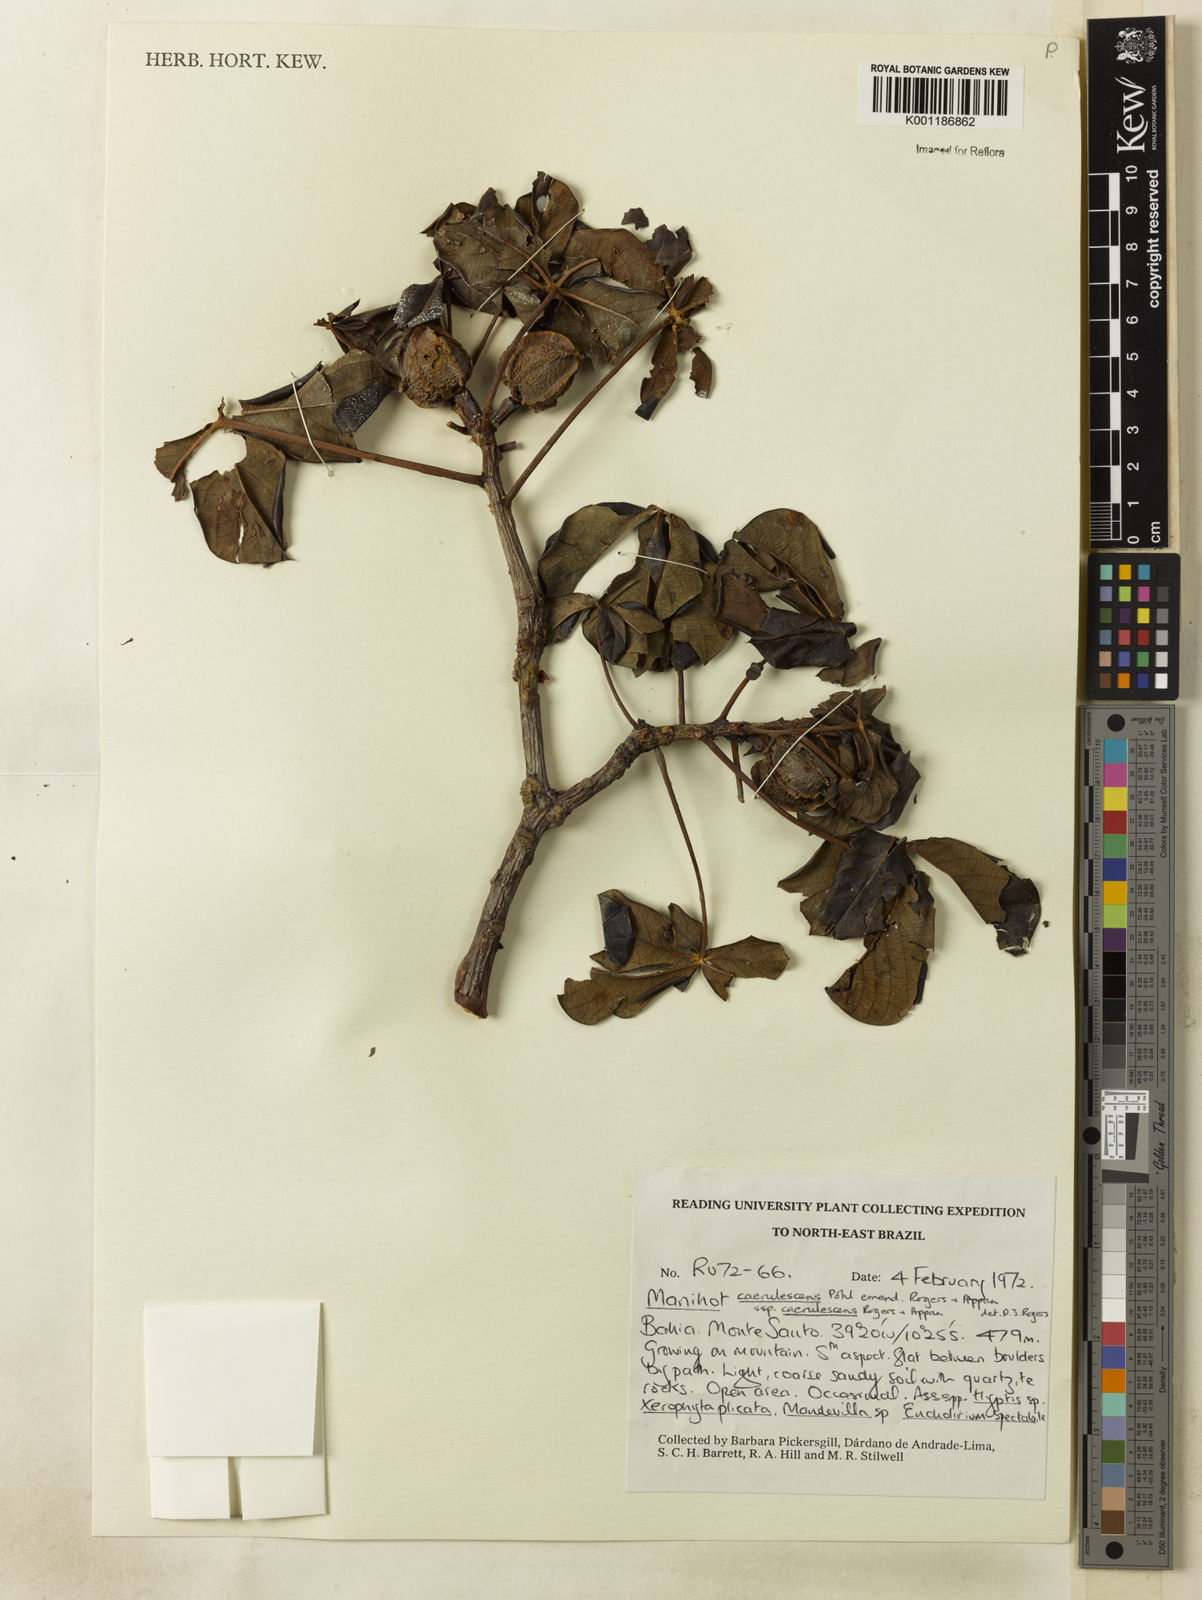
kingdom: Plantae
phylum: Tracheophyta
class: Magnoliopsida
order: Malpighiales
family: Euphorbiaceae
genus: Manihot
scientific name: Manihot caerulescens
